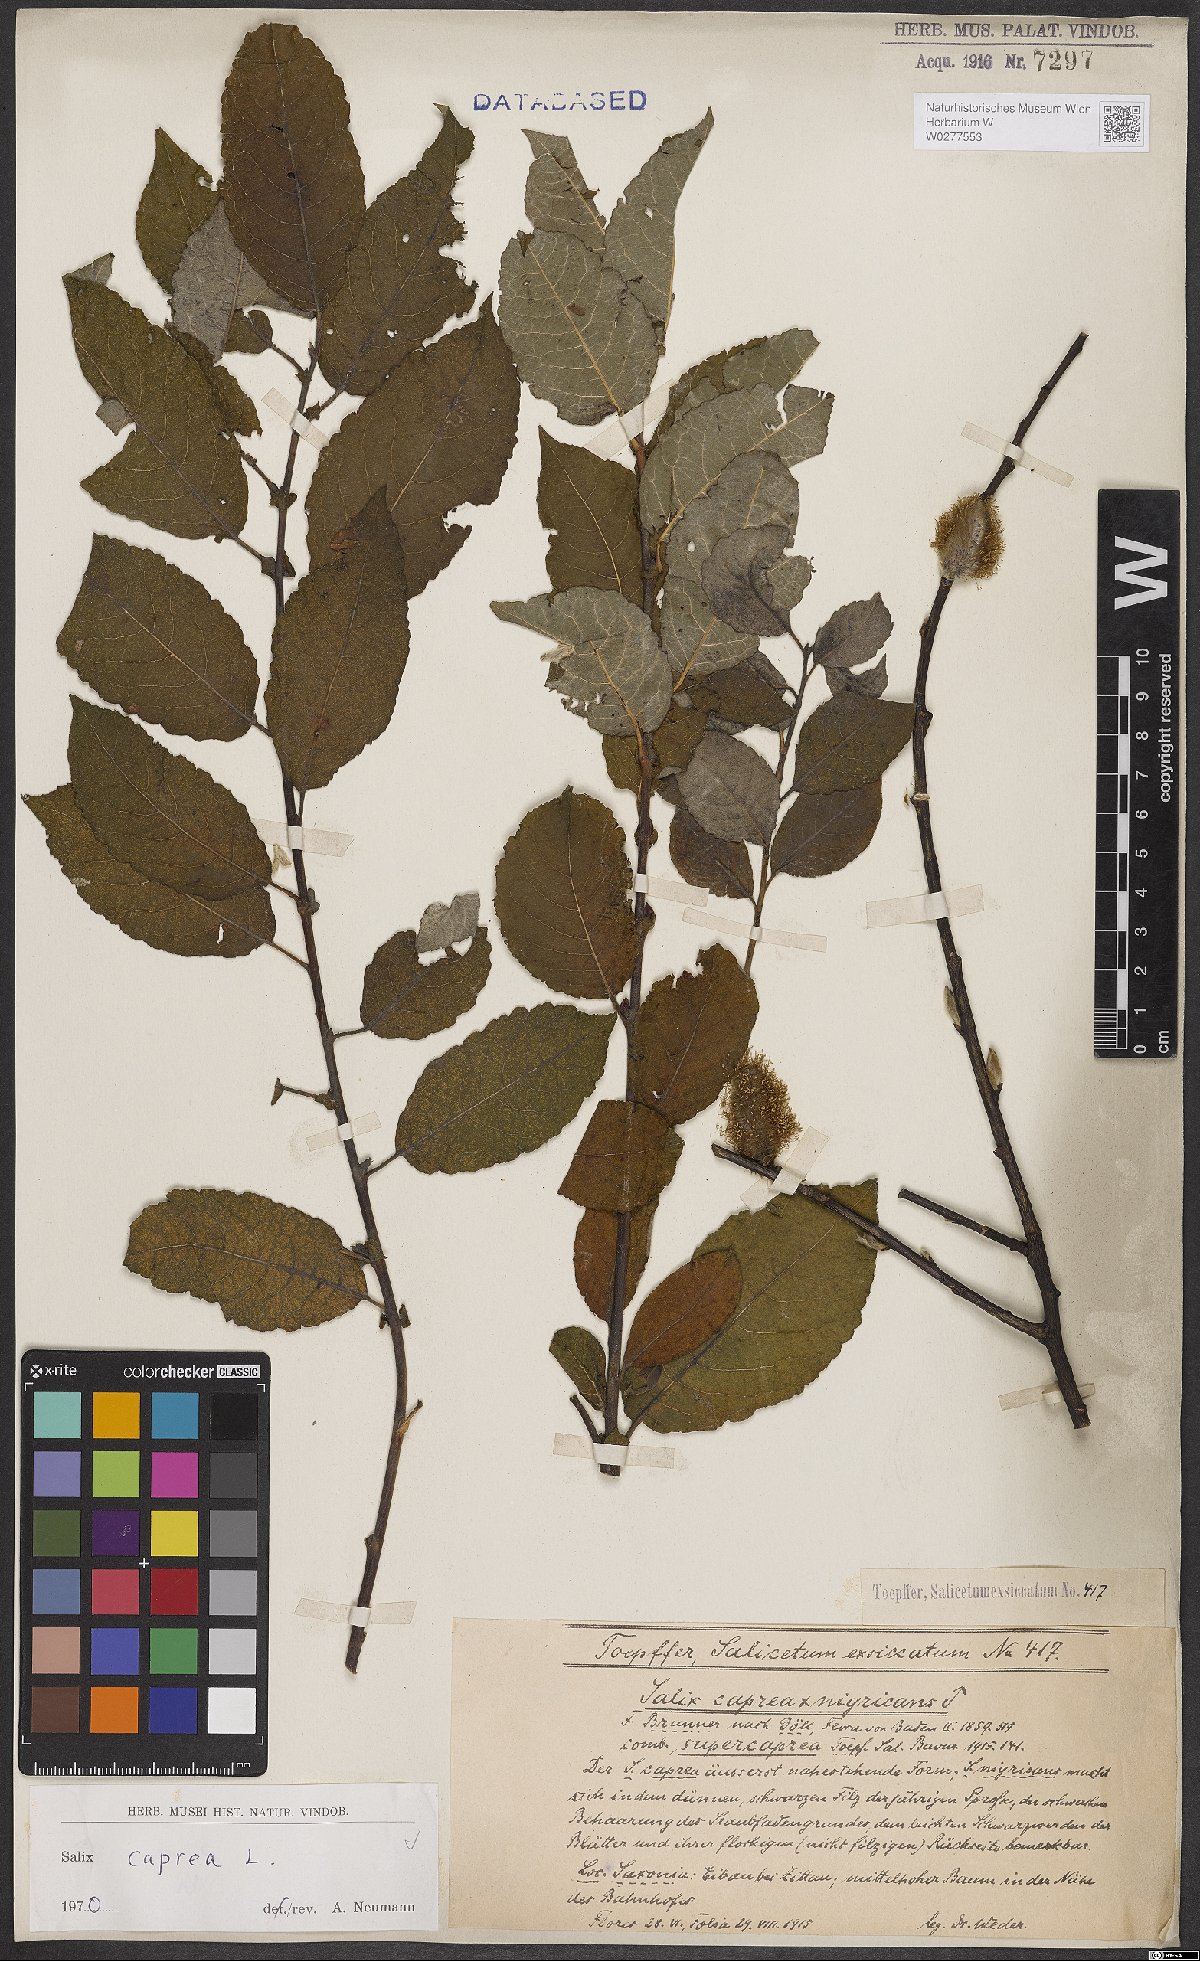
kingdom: Plantae
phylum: Tracheophyta
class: Magnoliopsida
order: Malpighiales
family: Salicaceae
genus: Salix
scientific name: Salix caprea
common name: Goat willow
